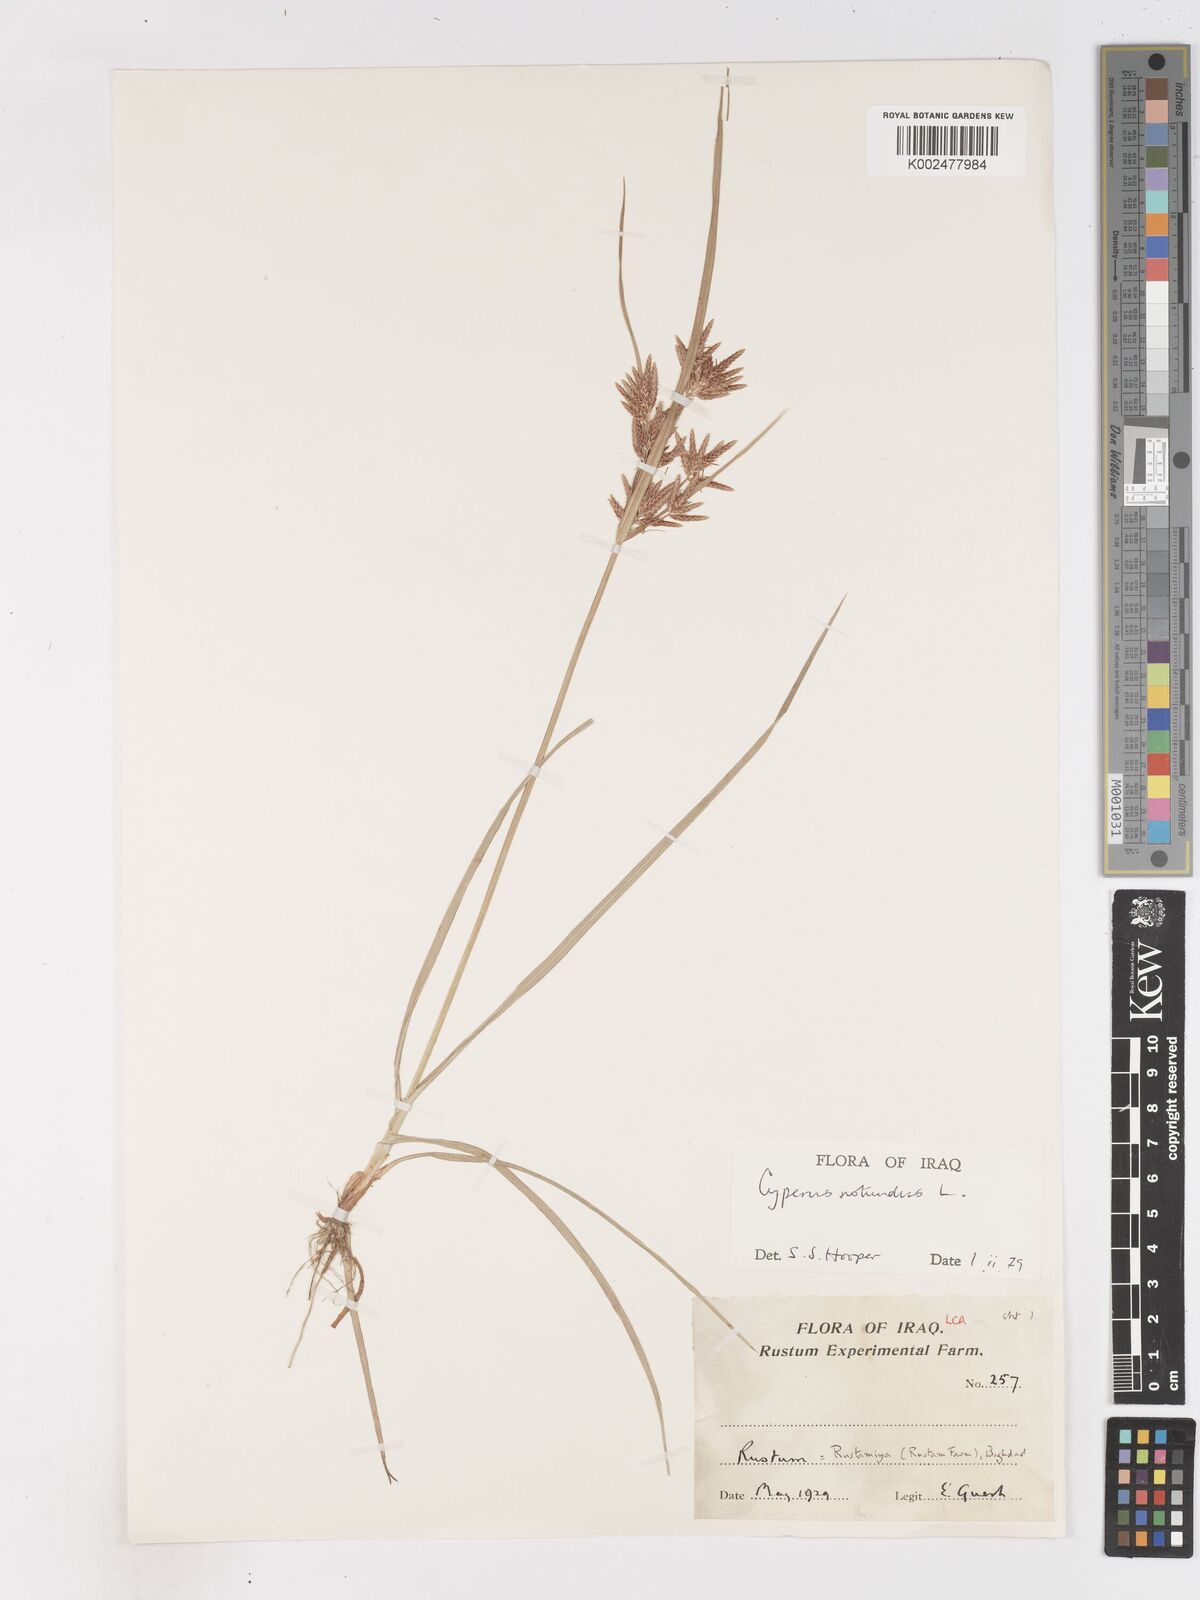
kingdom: Plantae
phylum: Tracheophyta
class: Liliopsida
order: Poales
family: Cyperaceae
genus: Cyperus
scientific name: Cyperus rotundus
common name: Nutgrass
